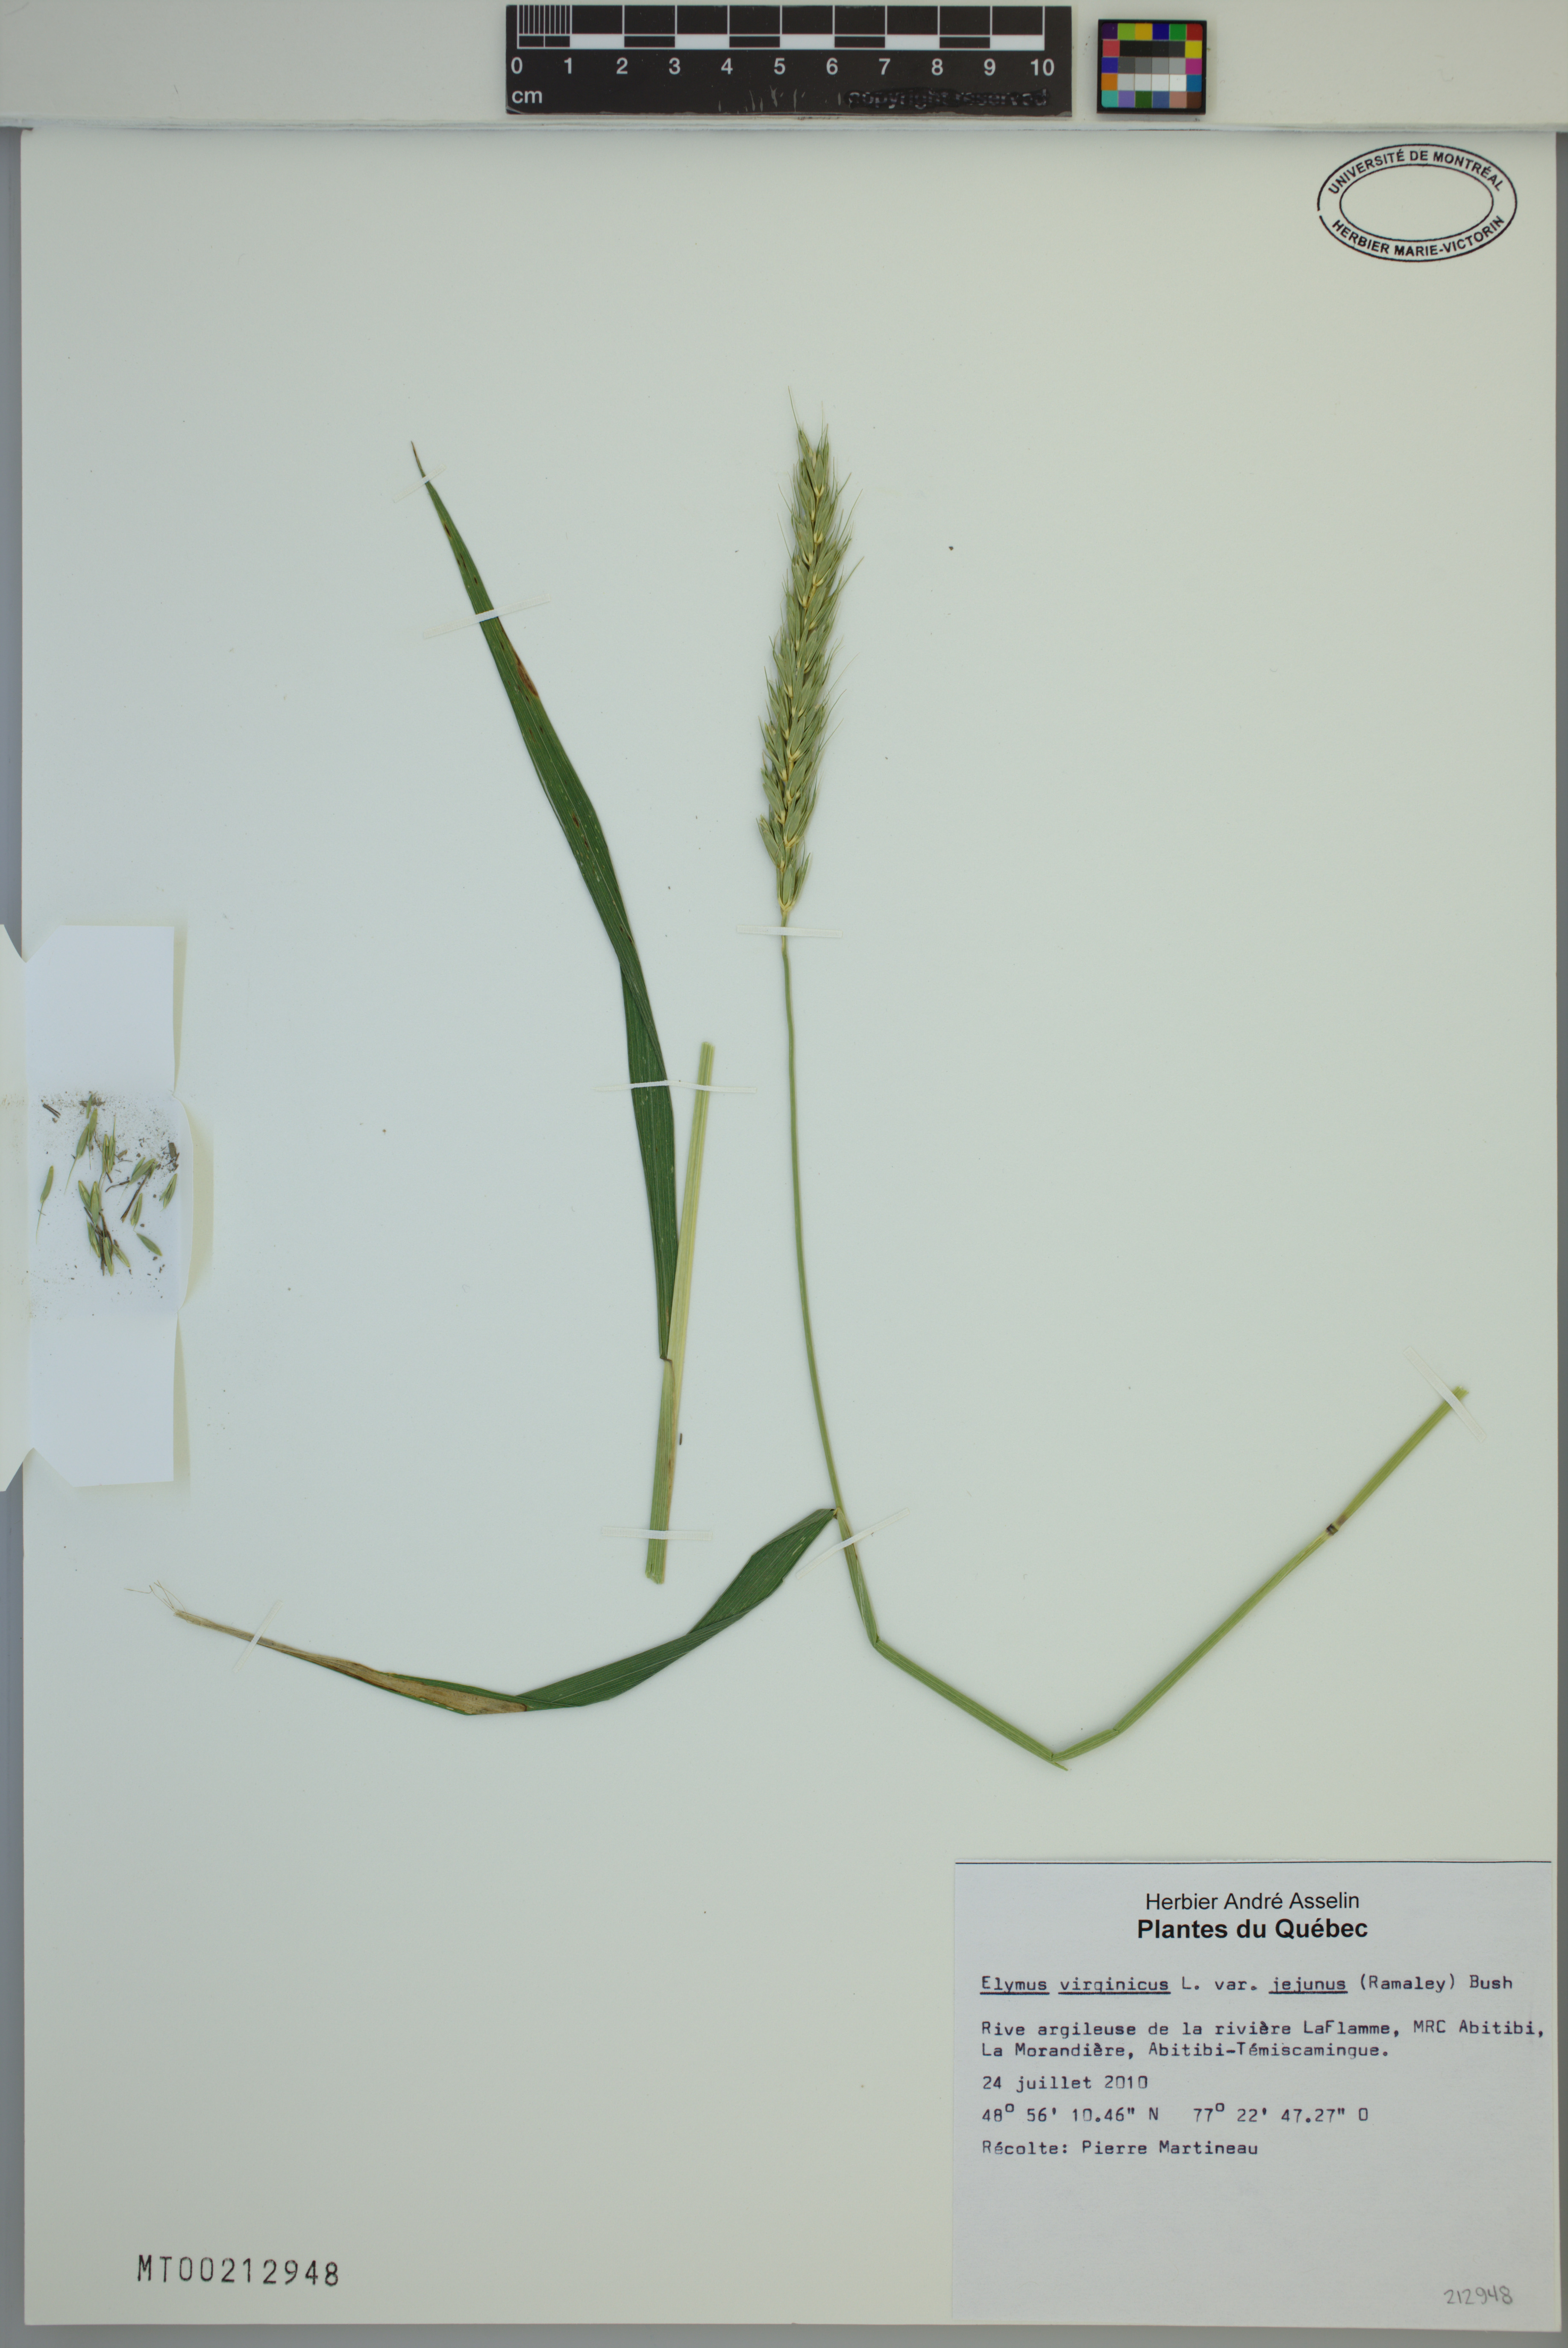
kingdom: Plantae
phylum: Tracheophyta
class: Liliopsida
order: Poales
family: Poaceae
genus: Elymus
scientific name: Elymus virginicus
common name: Common eastern wildrye
